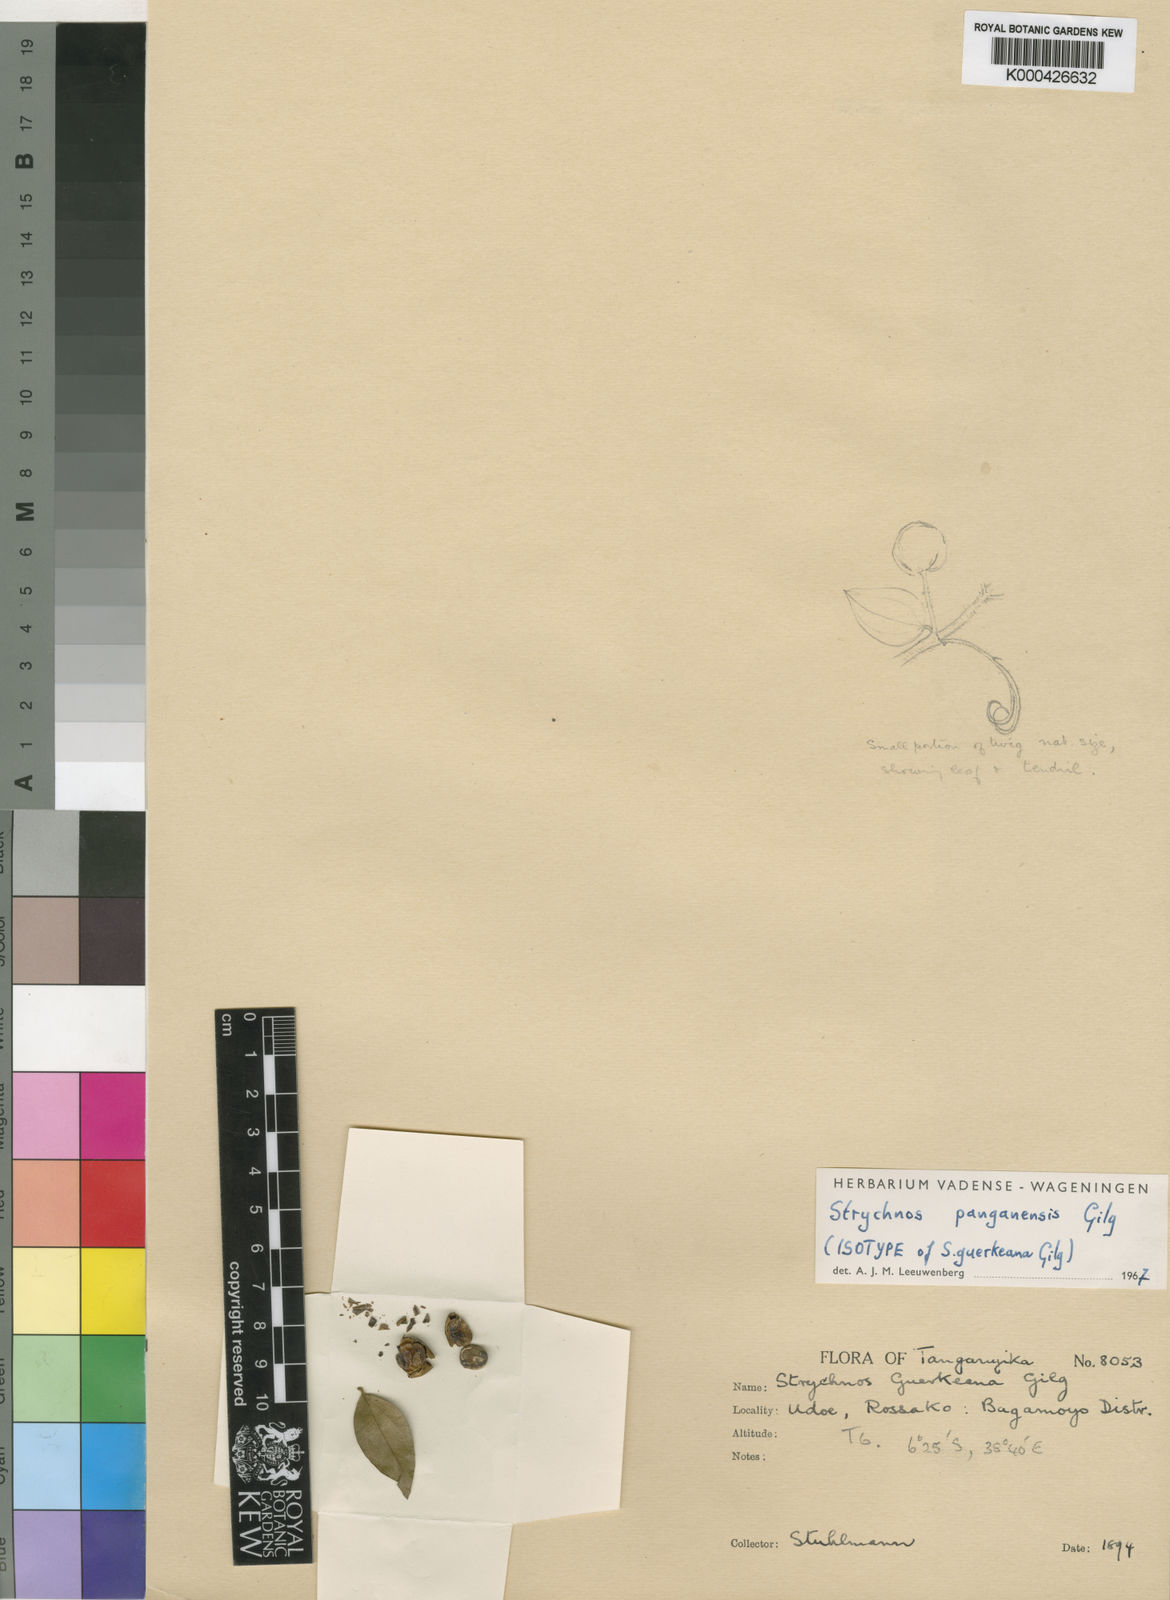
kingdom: Plantae
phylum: Tracheophyta
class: Magnoliopsida
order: Gentianales
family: Loganiaceae
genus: Strychnos
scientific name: Strychnos panganensis
